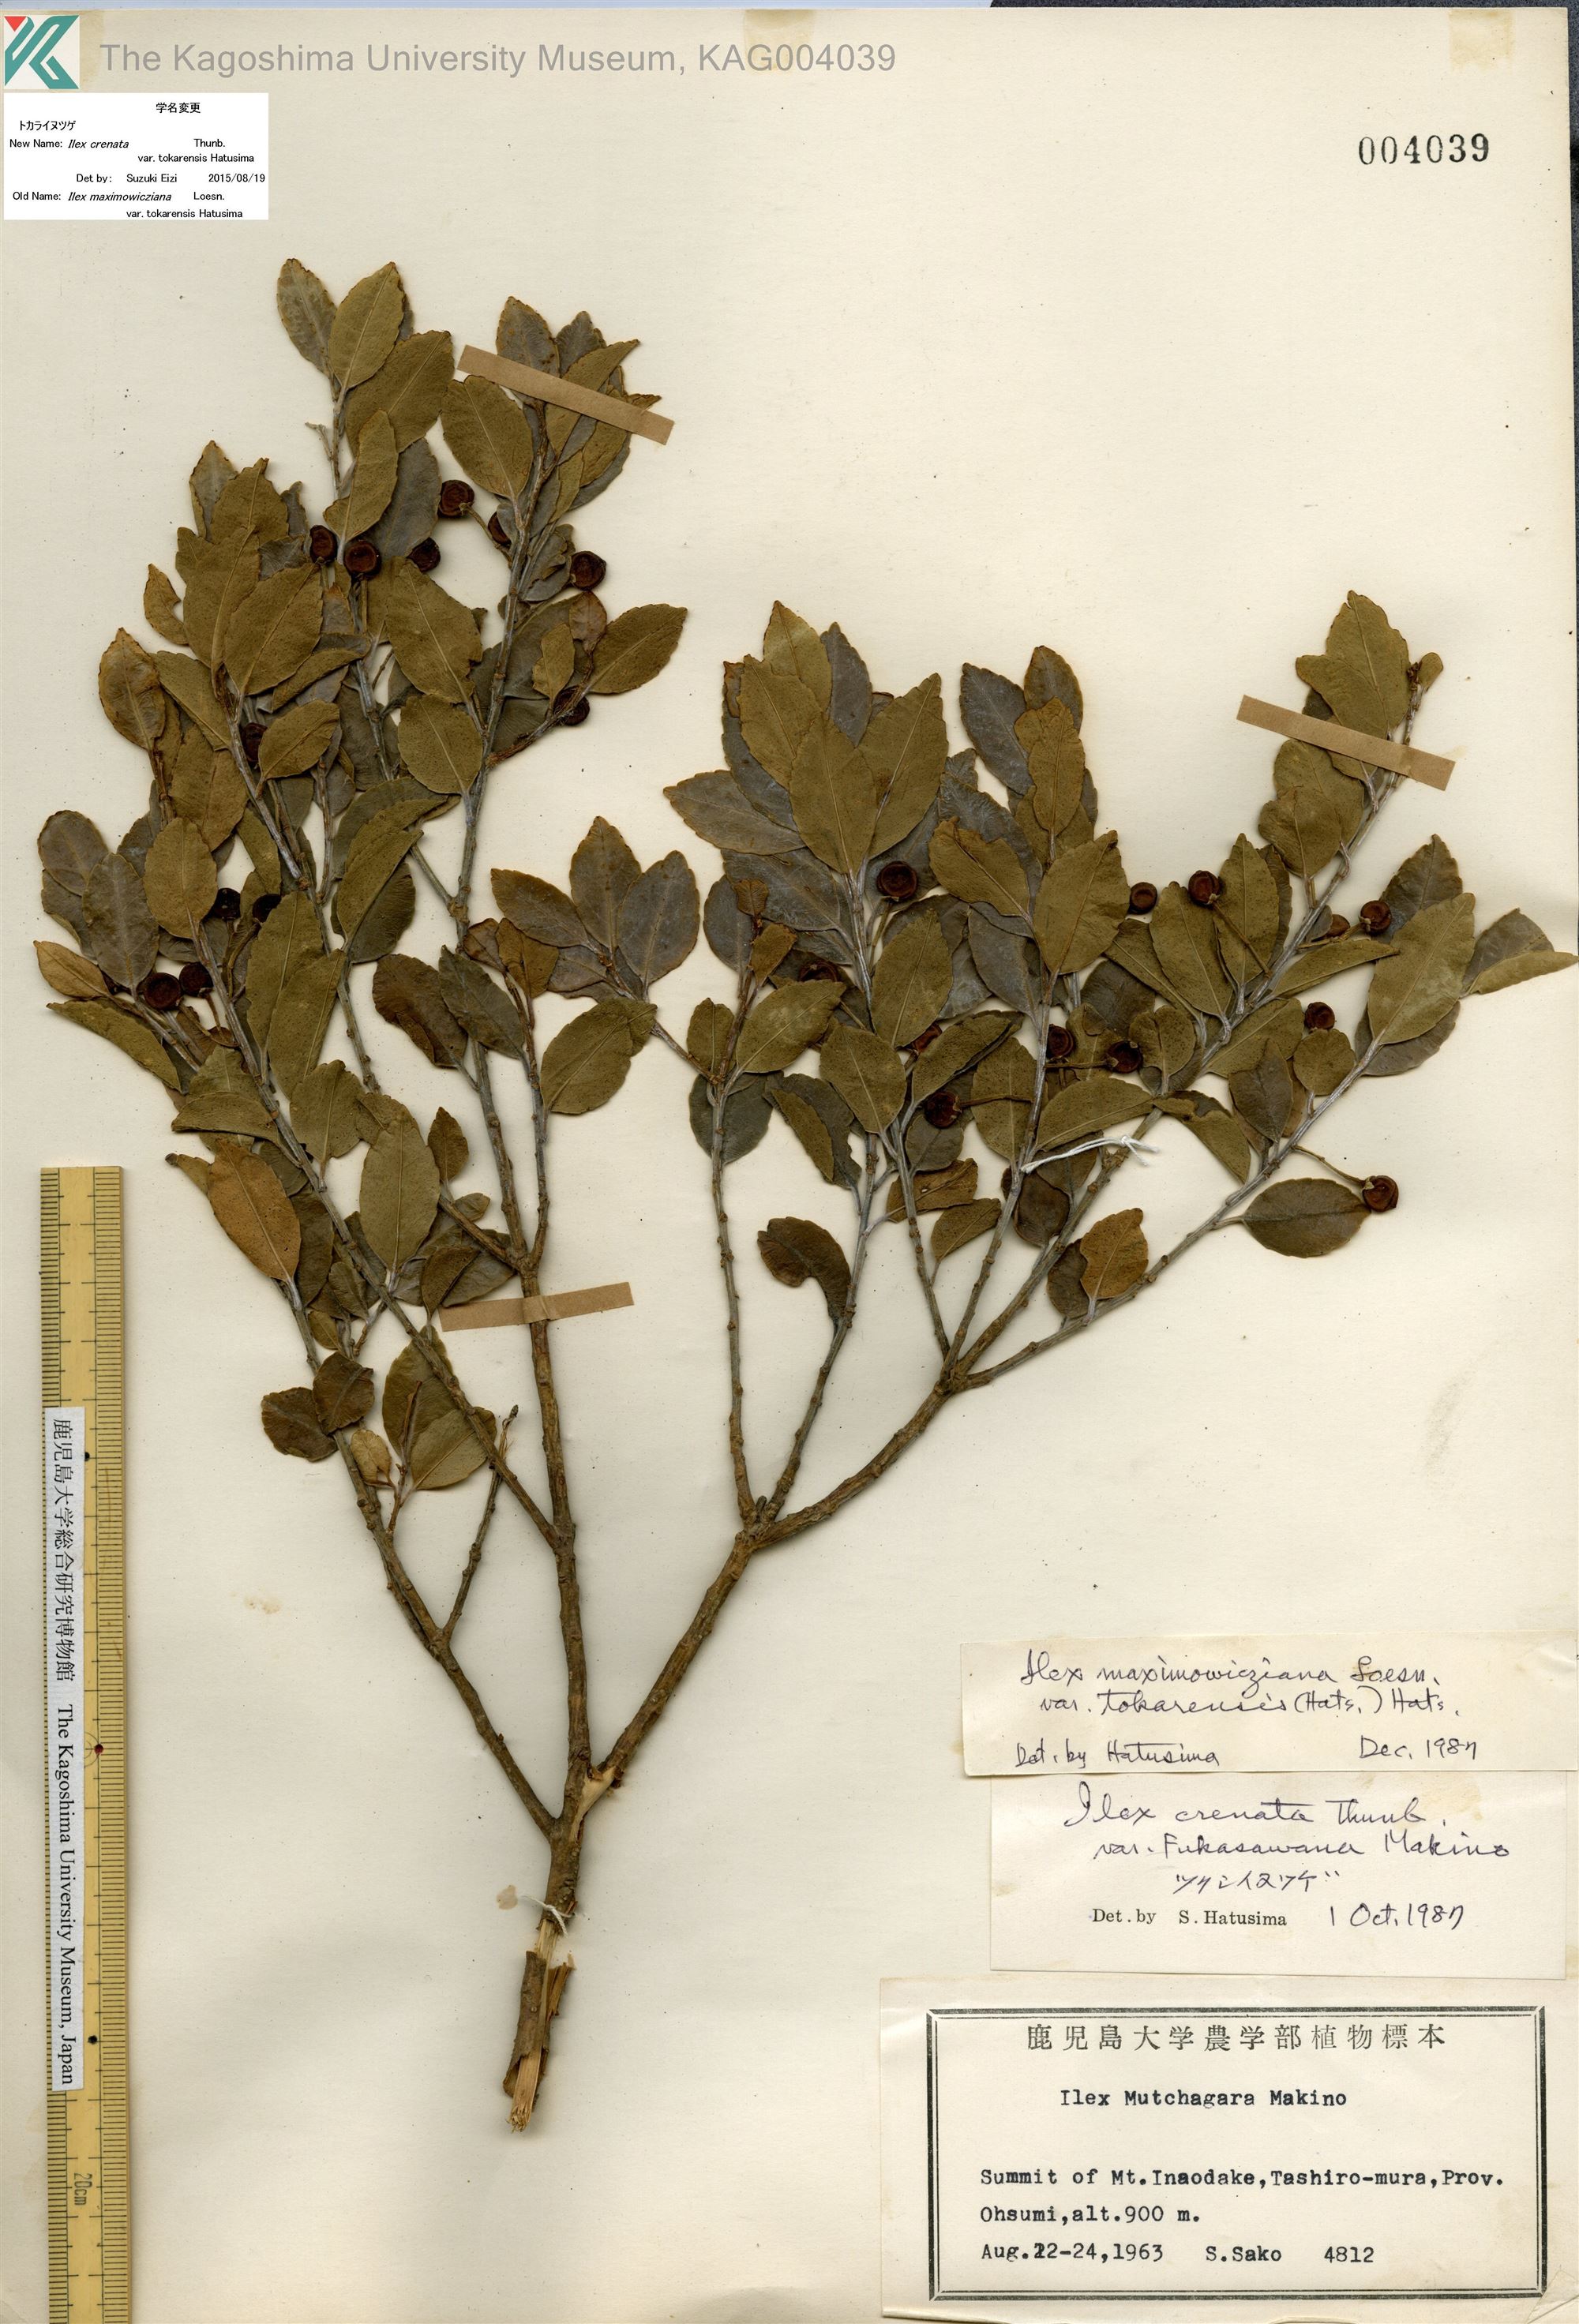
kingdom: Plantae
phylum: Tracheophyta
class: Magnoliopsida
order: Aquifoliales
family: Aquifoliaceae
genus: Ilex
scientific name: Ilex crenata
